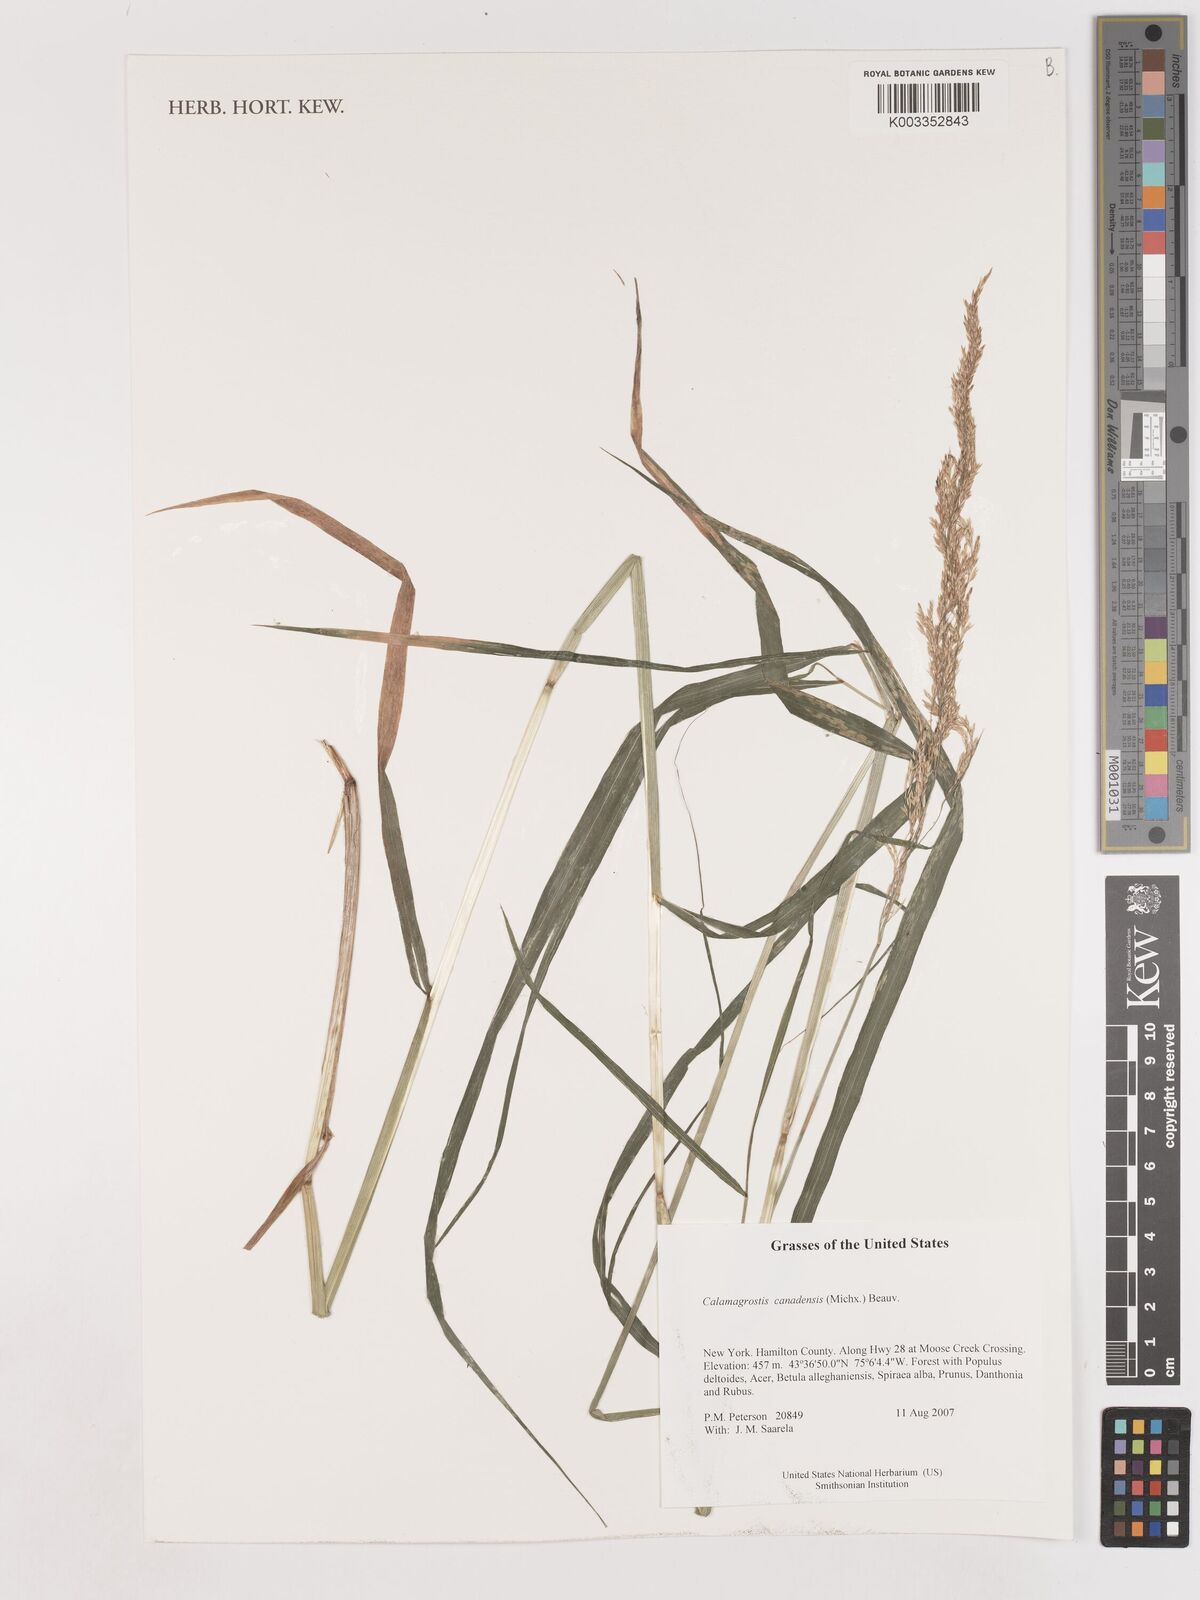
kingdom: Plantae
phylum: Tracheophyta
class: Liliopsida
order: Poales
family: Poaceae
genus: Calamagrostis
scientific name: Calamagrostis canadensis
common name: Canada bluejoint
